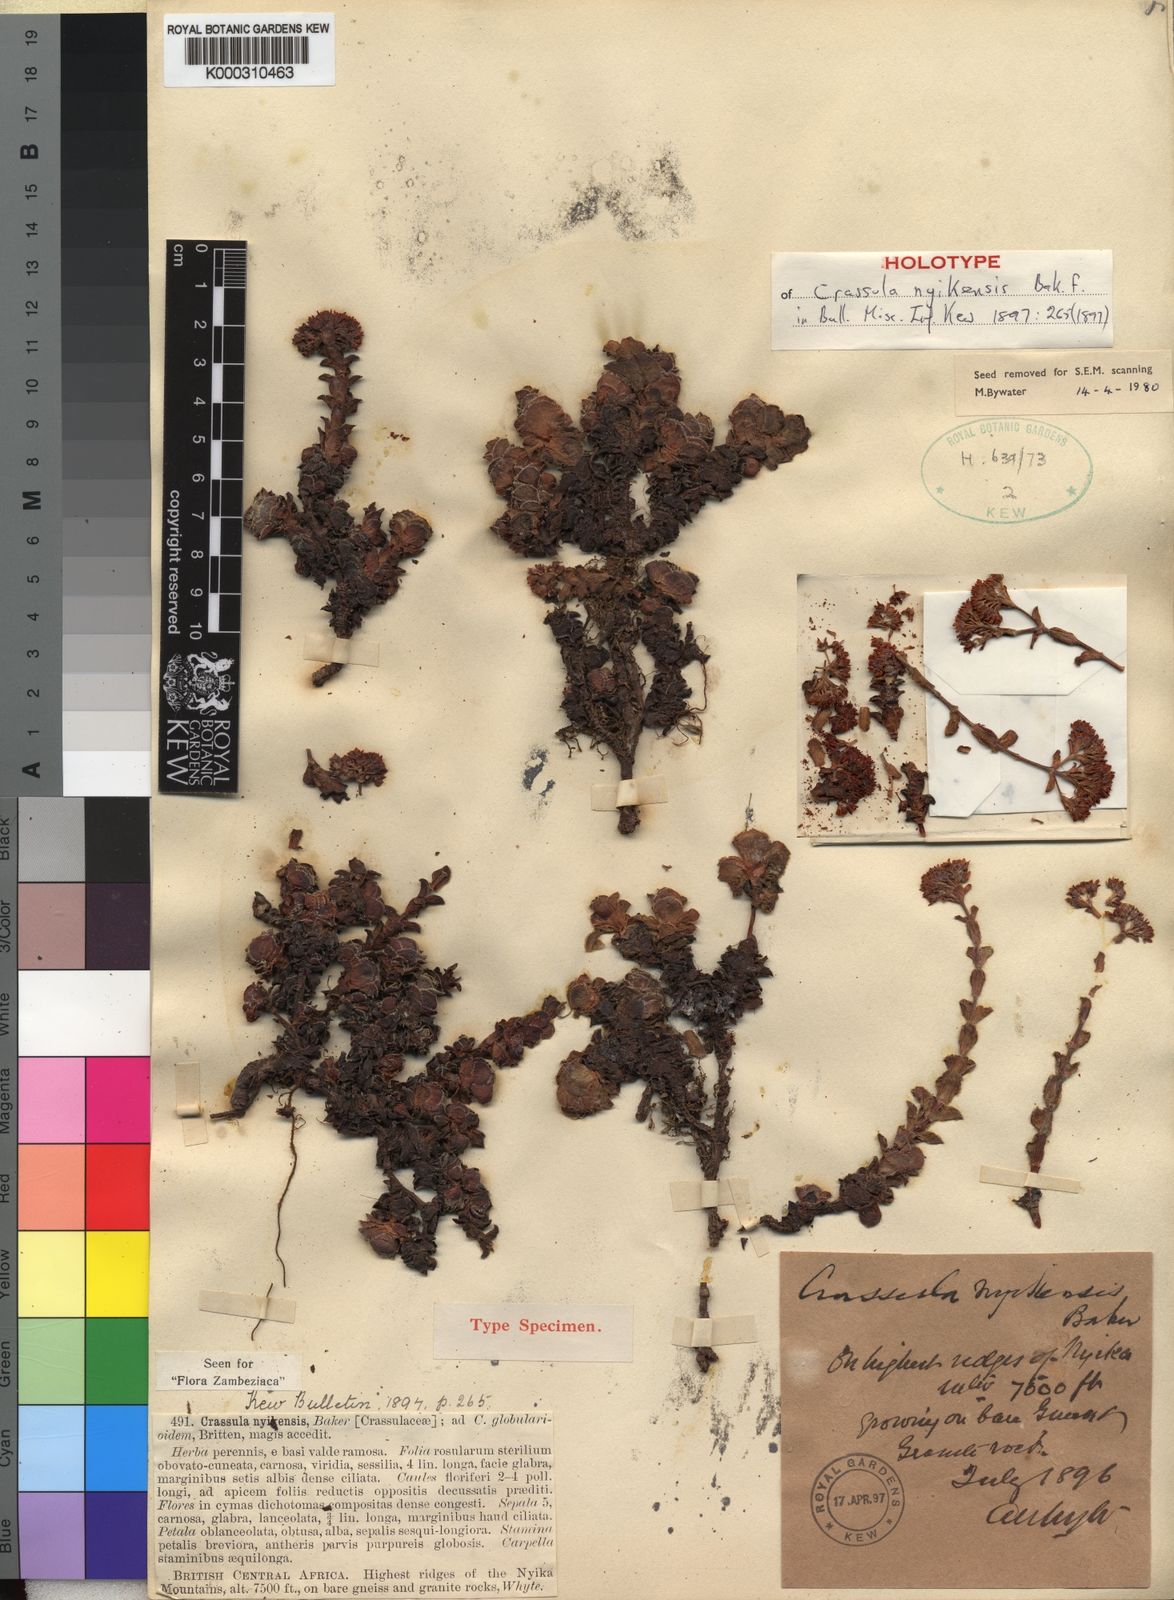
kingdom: Plantae
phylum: Tracheophyta
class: Magnoliopsida
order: Saxifragales
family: Crassulaceae
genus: Crassula
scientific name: Crassula globularioides
